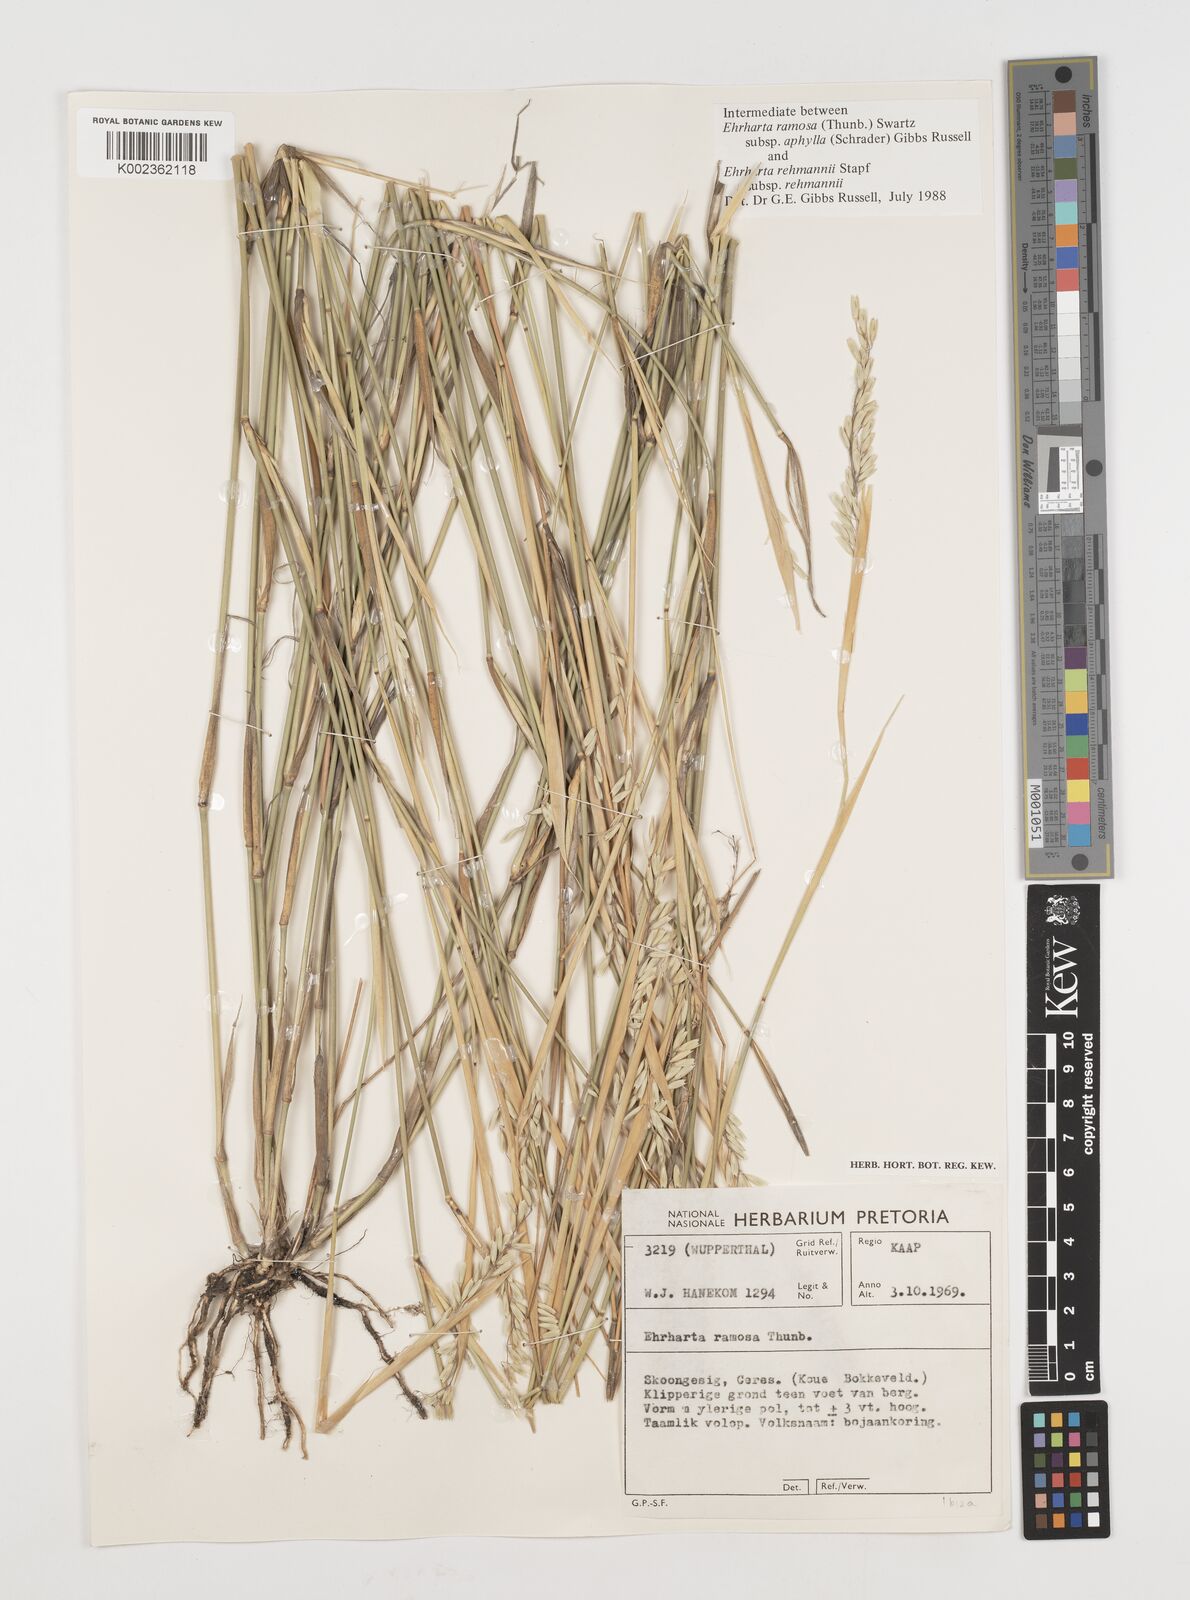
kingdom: Plantae
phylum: Tracheophyta
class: Liliopsida
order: Poales
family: Poaceae
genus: Ehrharta
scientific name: Ehrharta digyna
